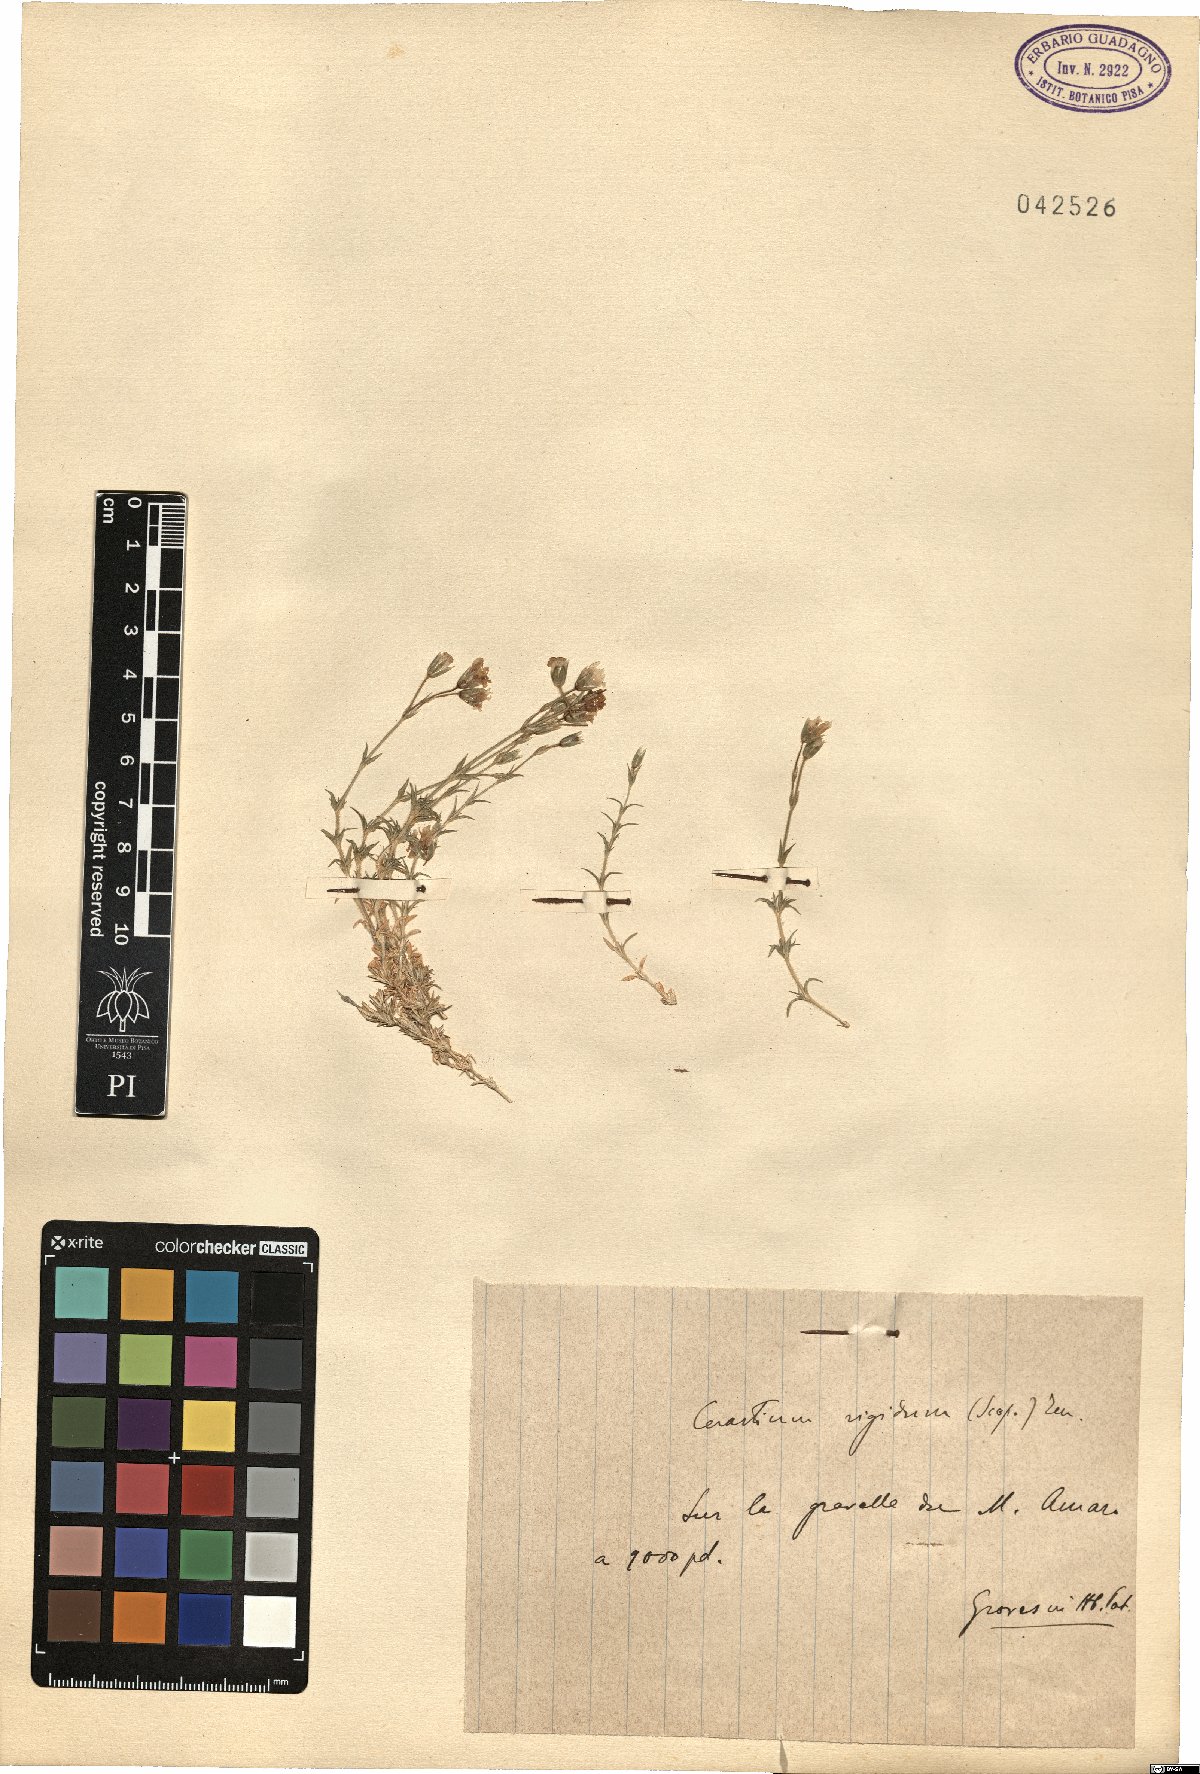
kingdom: Plantae
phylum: Tracheophyta
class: Magnoliopsida
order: Caryophyllales
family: Caryophyllaceae
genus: Cerastium
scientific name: Cerastium arvense
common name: Field mouse-ear
